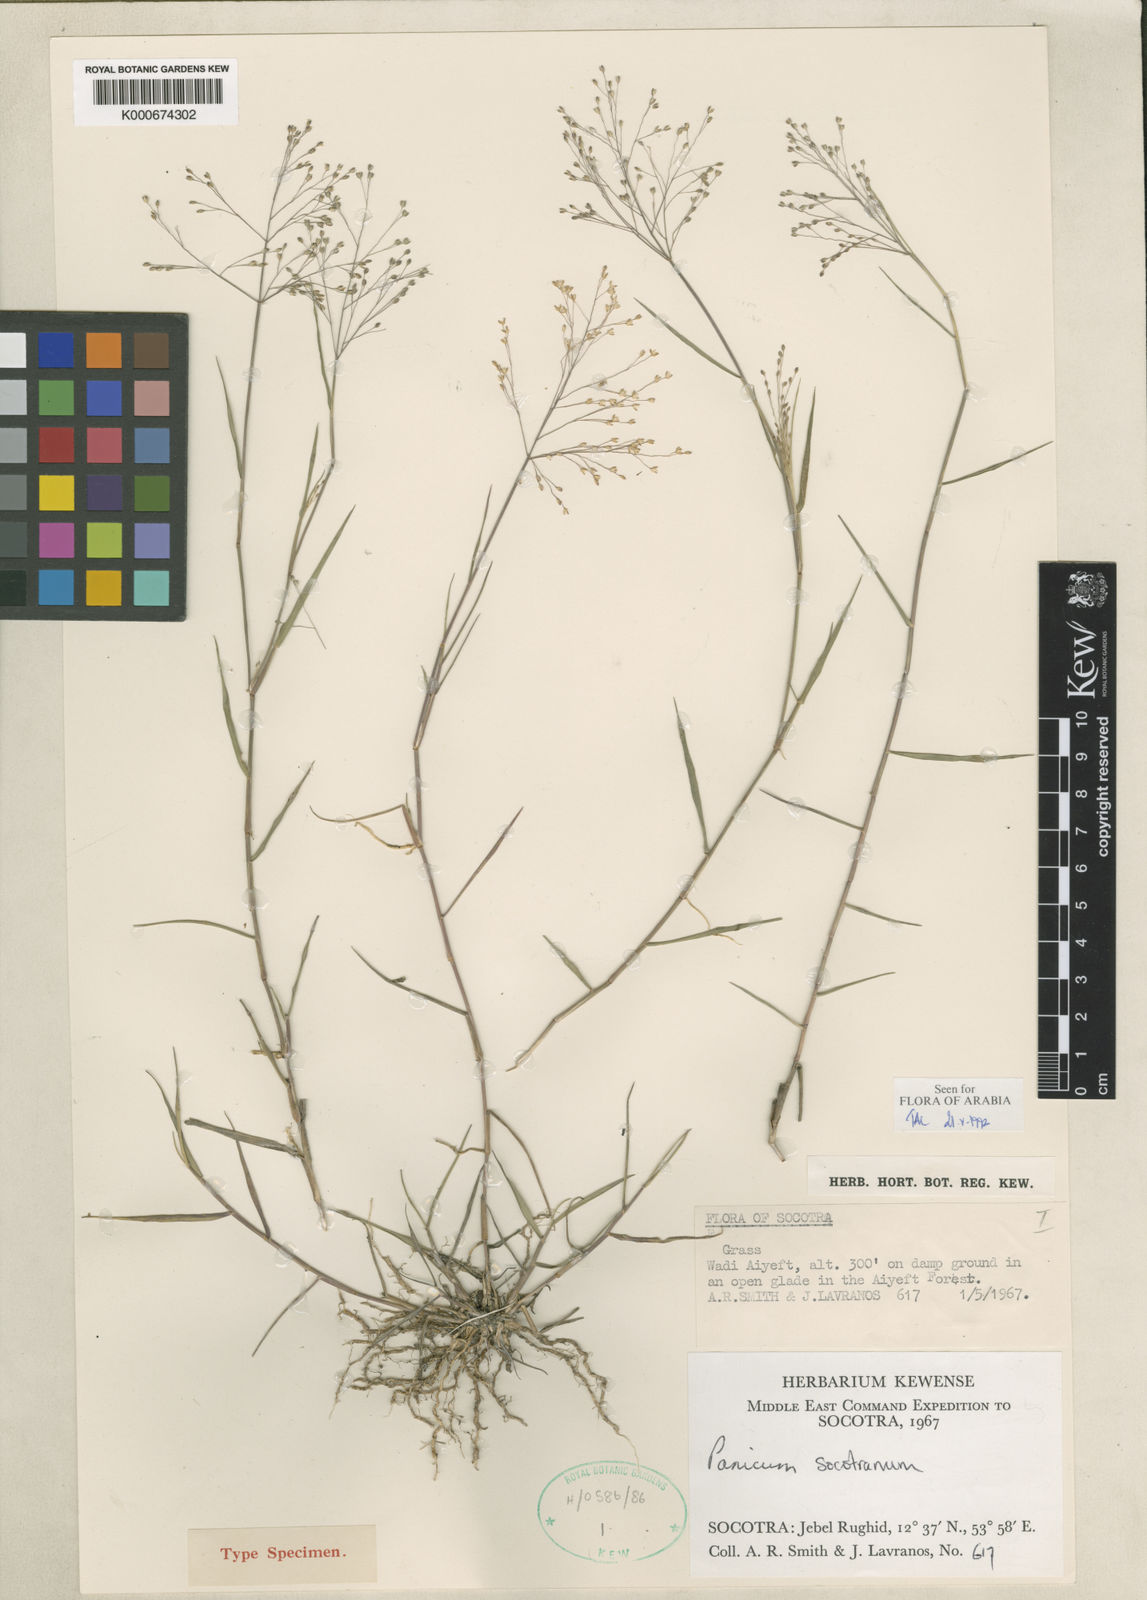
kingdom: Plantae
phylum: Tracheophyta
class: Liliopsida
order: Poales
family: Poaceae
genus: Panicum
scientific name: Panicum socotranum
